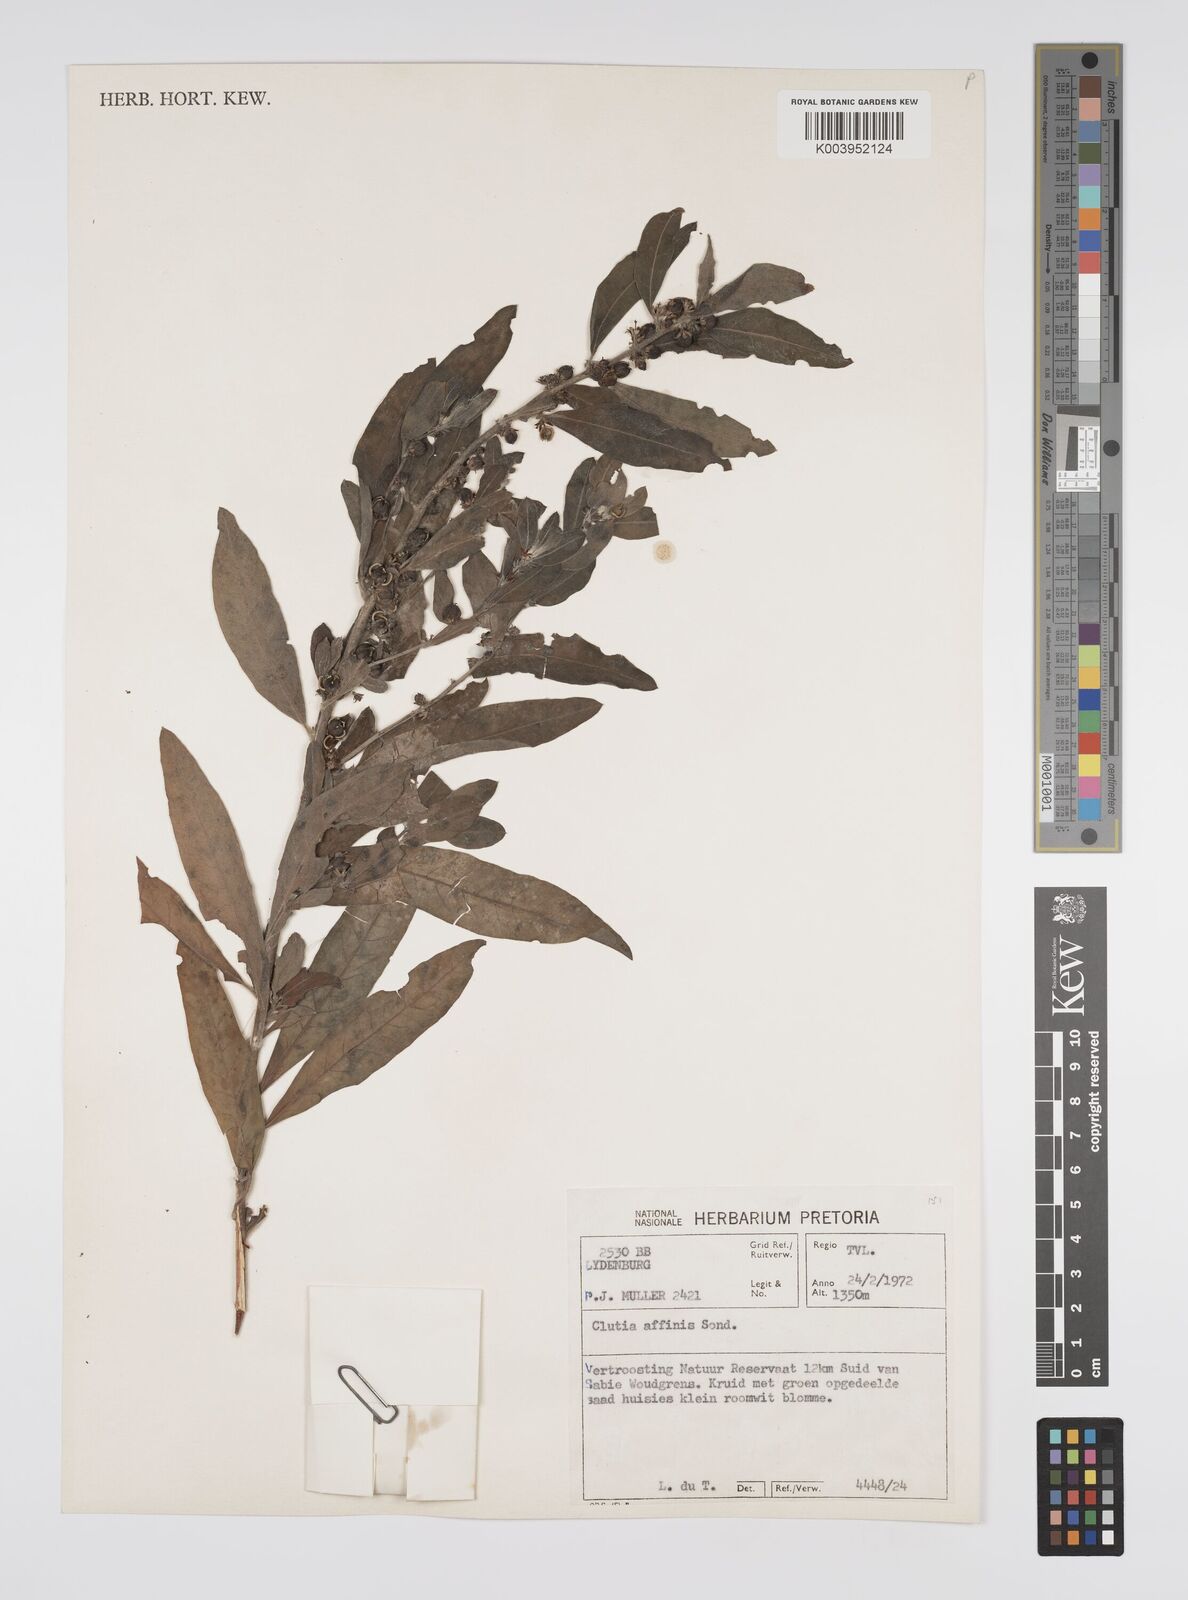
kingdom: Plantae
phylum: Tracheophyta
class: Magnoliopsida
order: Malpighiales
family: Peraceae
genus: Clutia
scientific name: Clutia affinis
